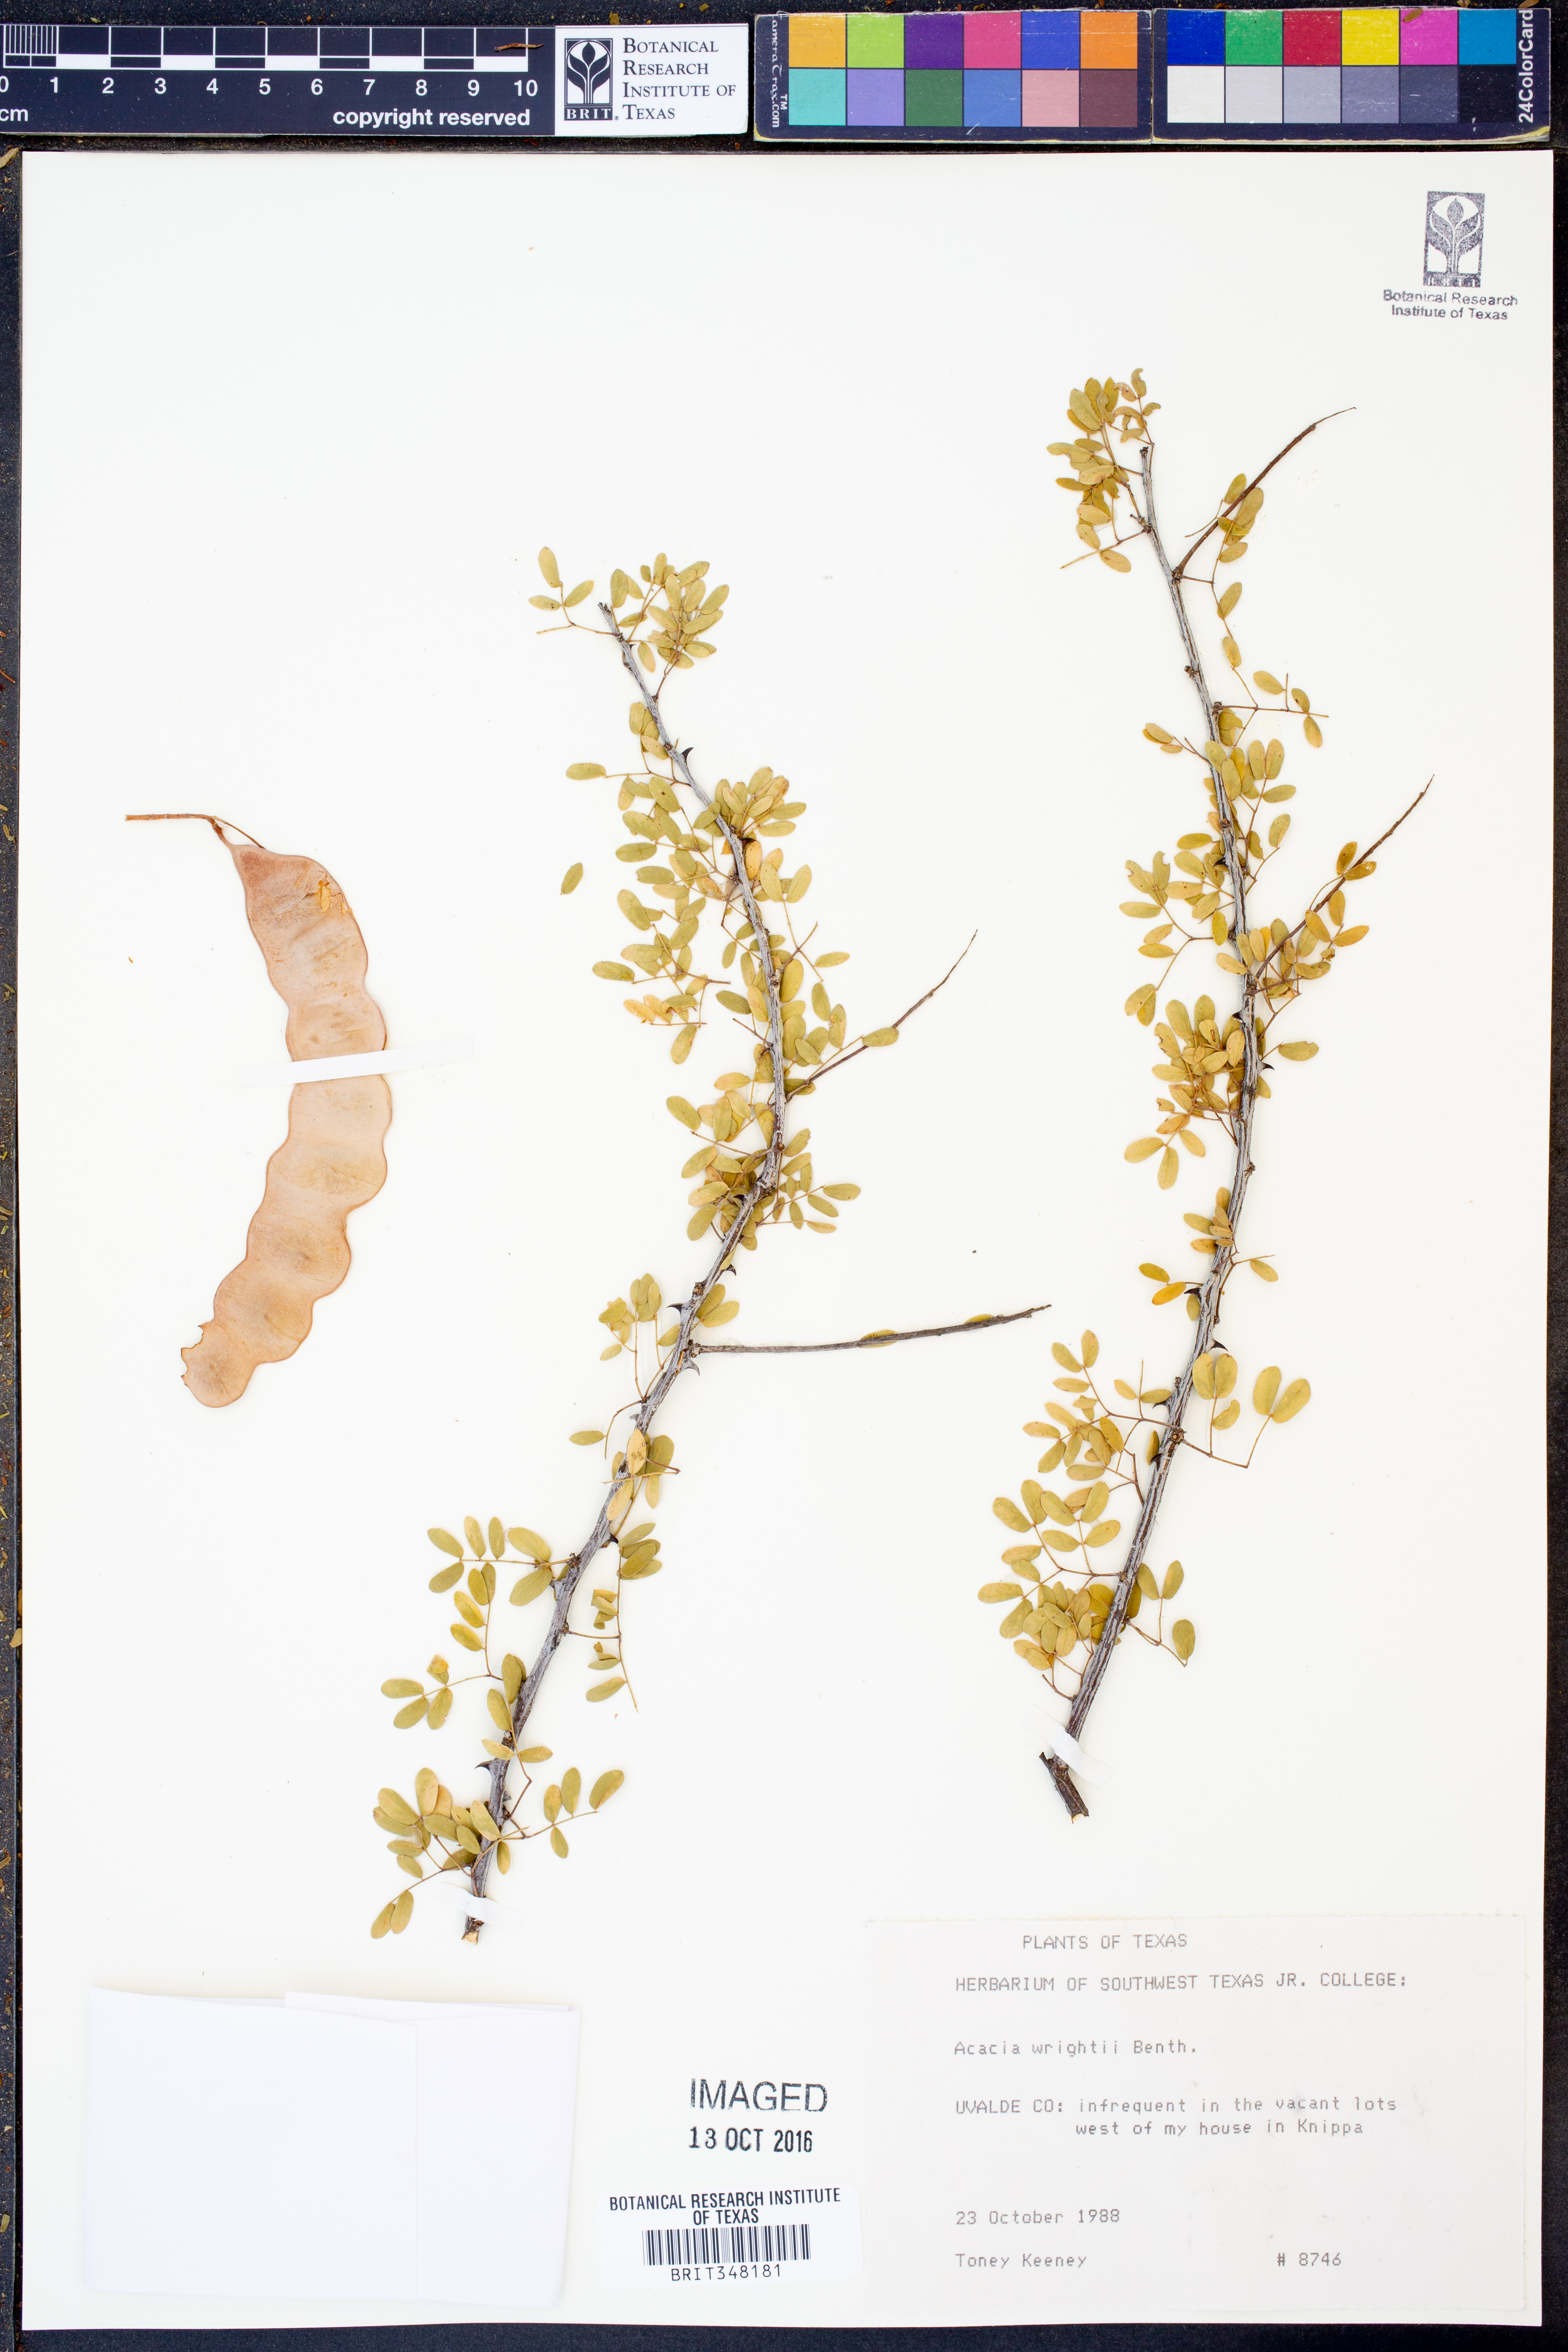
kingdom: Plantae
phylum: Tracheophyta
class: Magnoliopsida
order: Fabales
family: Fabaceae
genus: Senegalia
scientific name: Senegalia wrightii
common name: Texas cat's-claw
